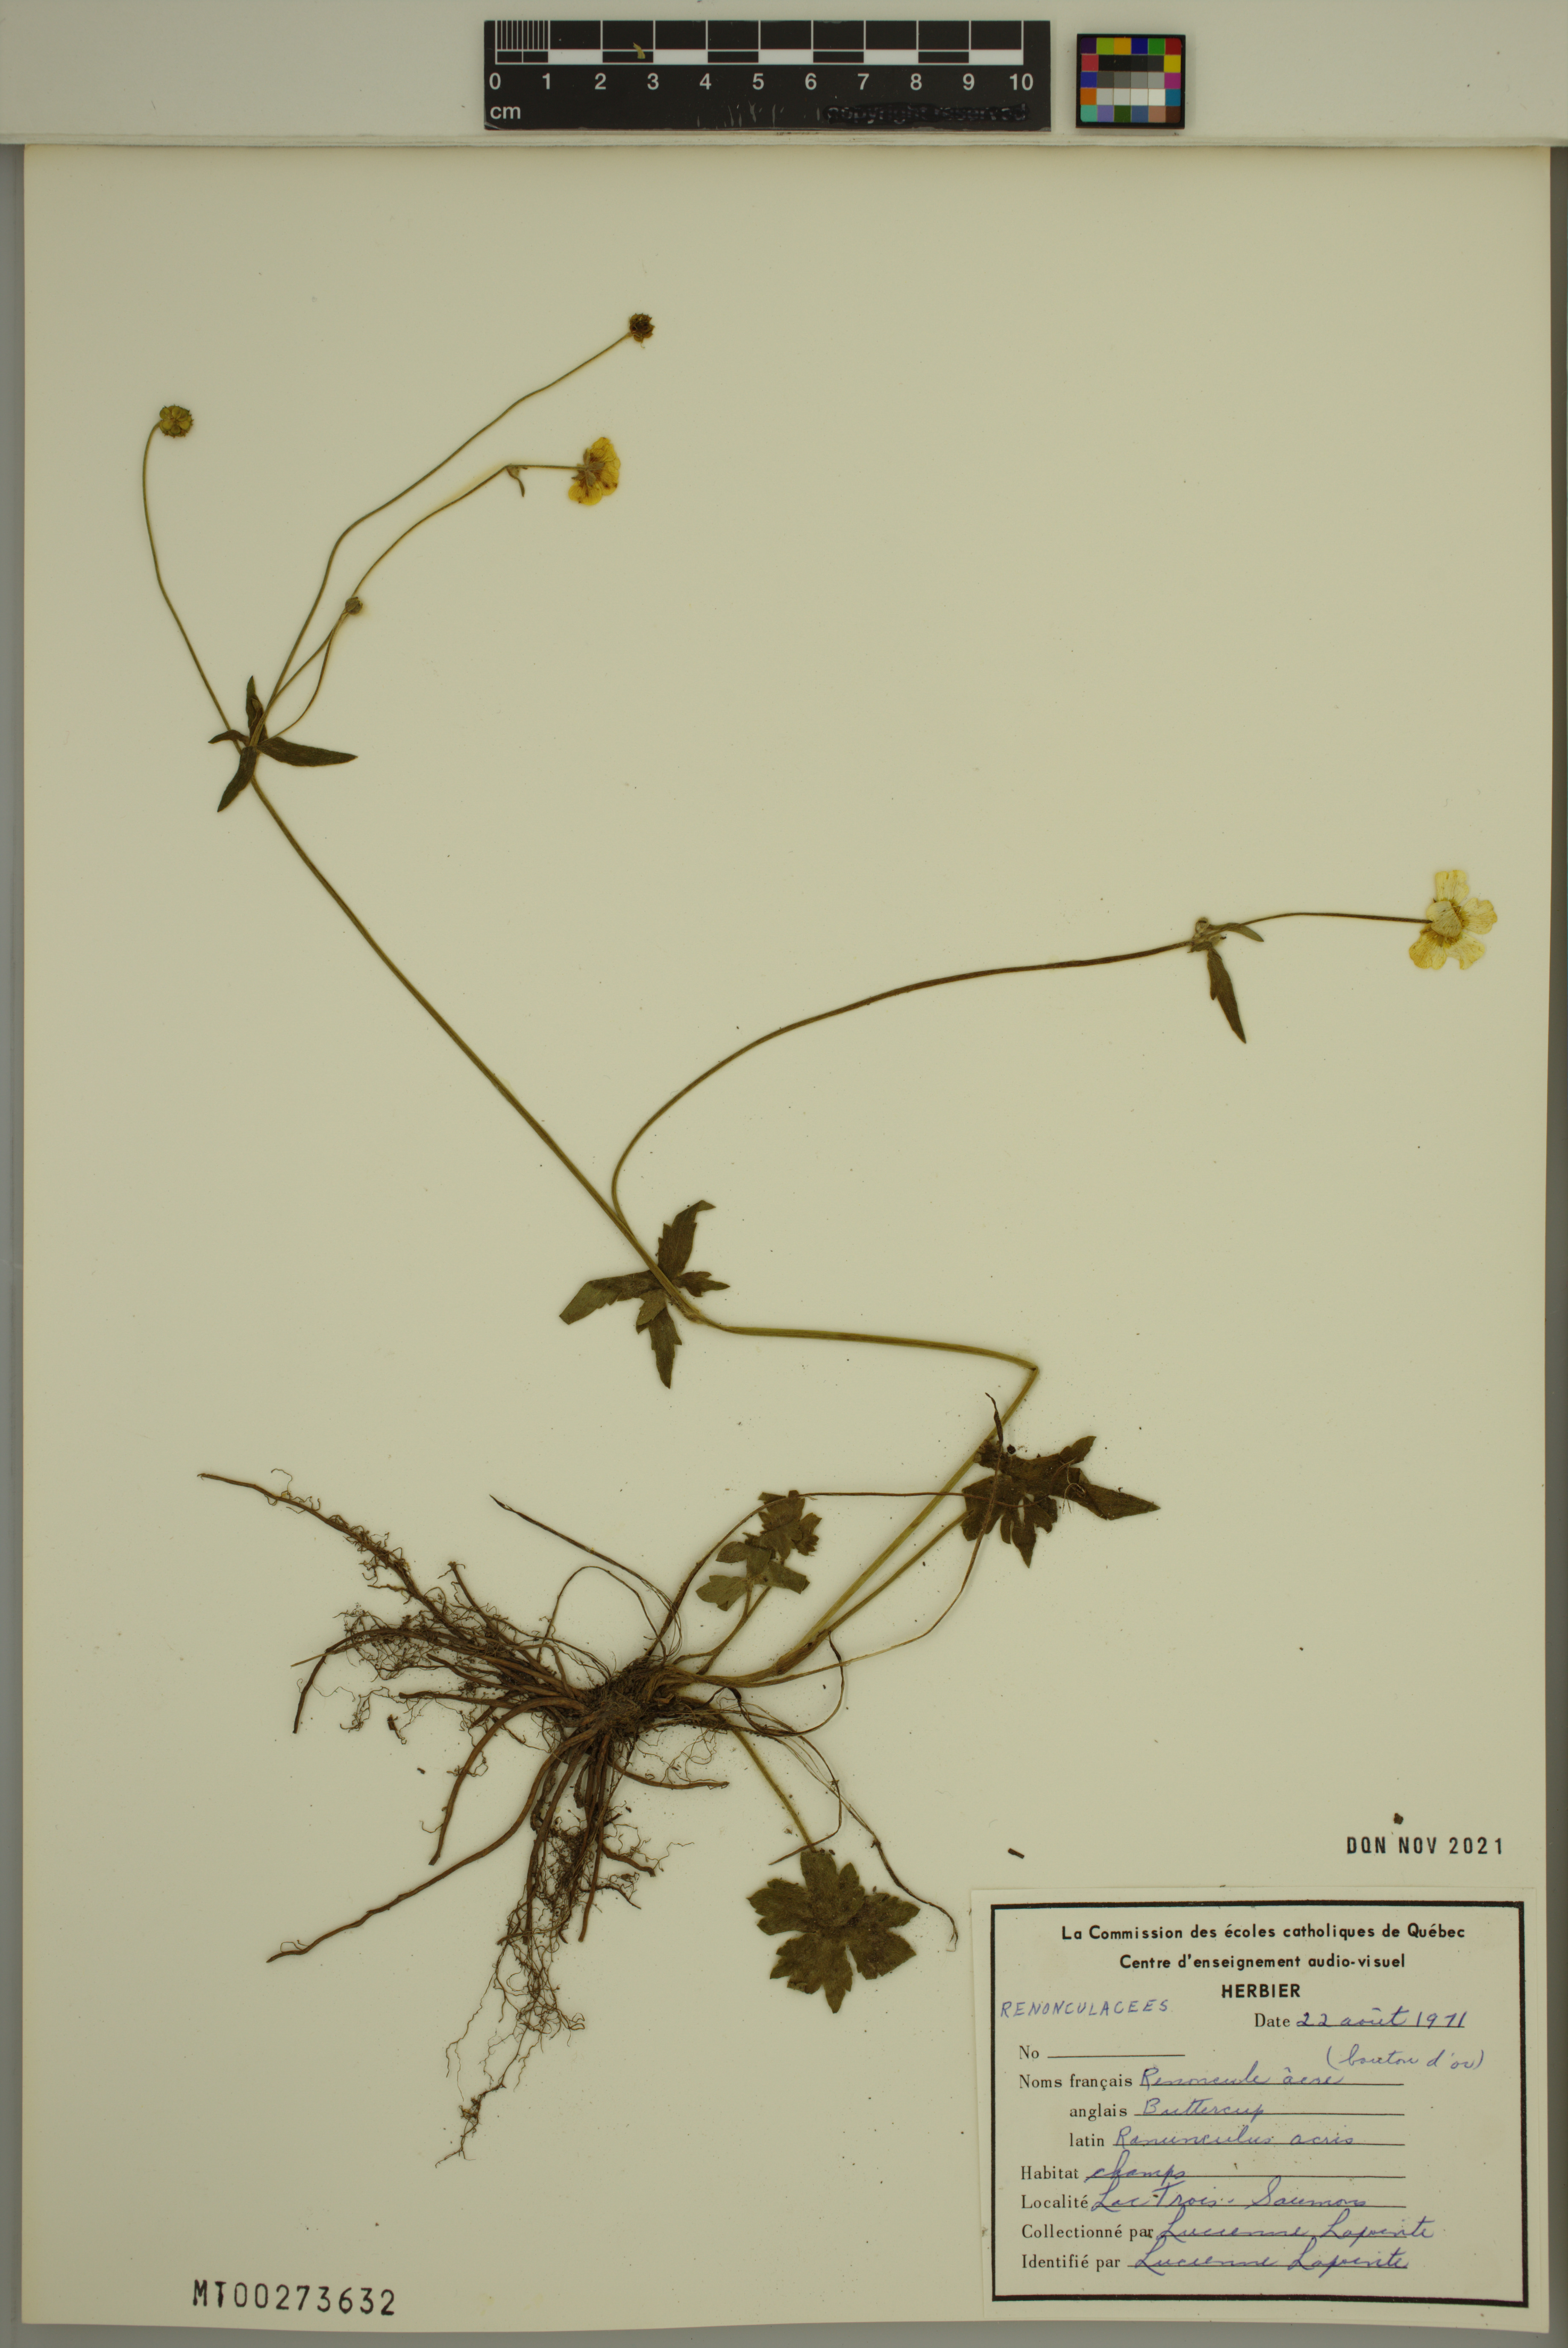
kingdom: Plantae
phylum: Tracheophyta
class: Magnoliopsida
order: Ranunculales
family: Ranunculaceae
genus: Ranunculus
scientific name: Ranunculus acris
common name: Meadow buttercup
